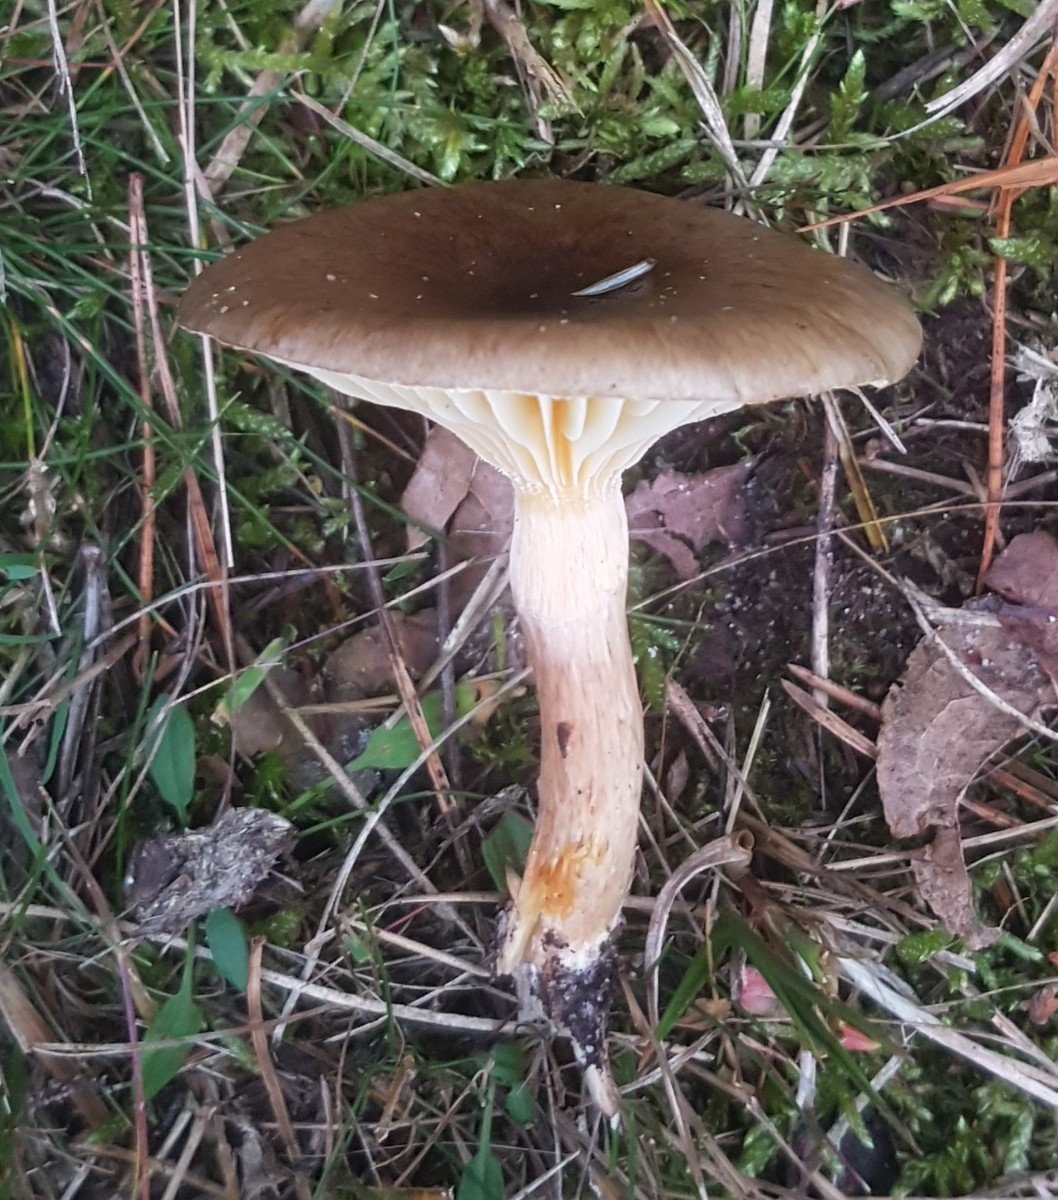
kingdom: Fungi
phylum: Basidiomycota
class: Agaricomycetes
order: Agaricales
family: Hygrophoraceae
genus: Hygrophorus
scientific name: Hygrophorus hypothejus
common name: frost-sneglehat
